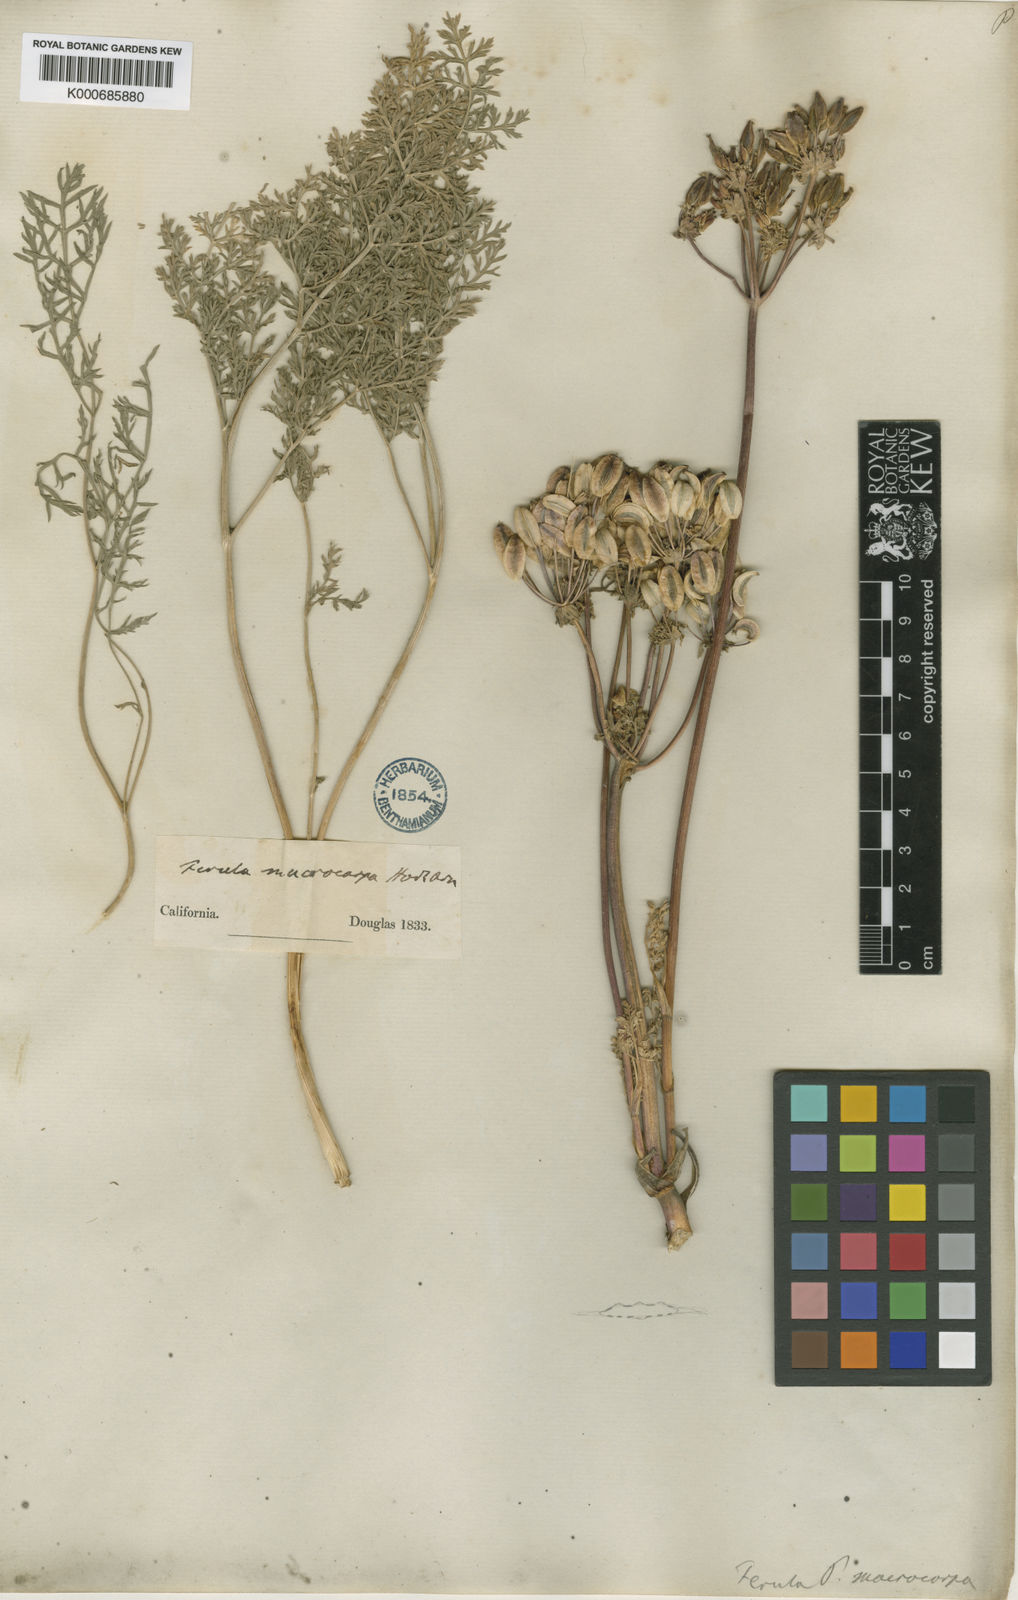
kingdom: Plantae
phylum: Tracheophyta
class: Magnoliopsida
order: Apiales
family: Apiaceae
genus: Lomatium
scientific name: Lomatium macrocarpum
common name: Big-seed biscuitroot
